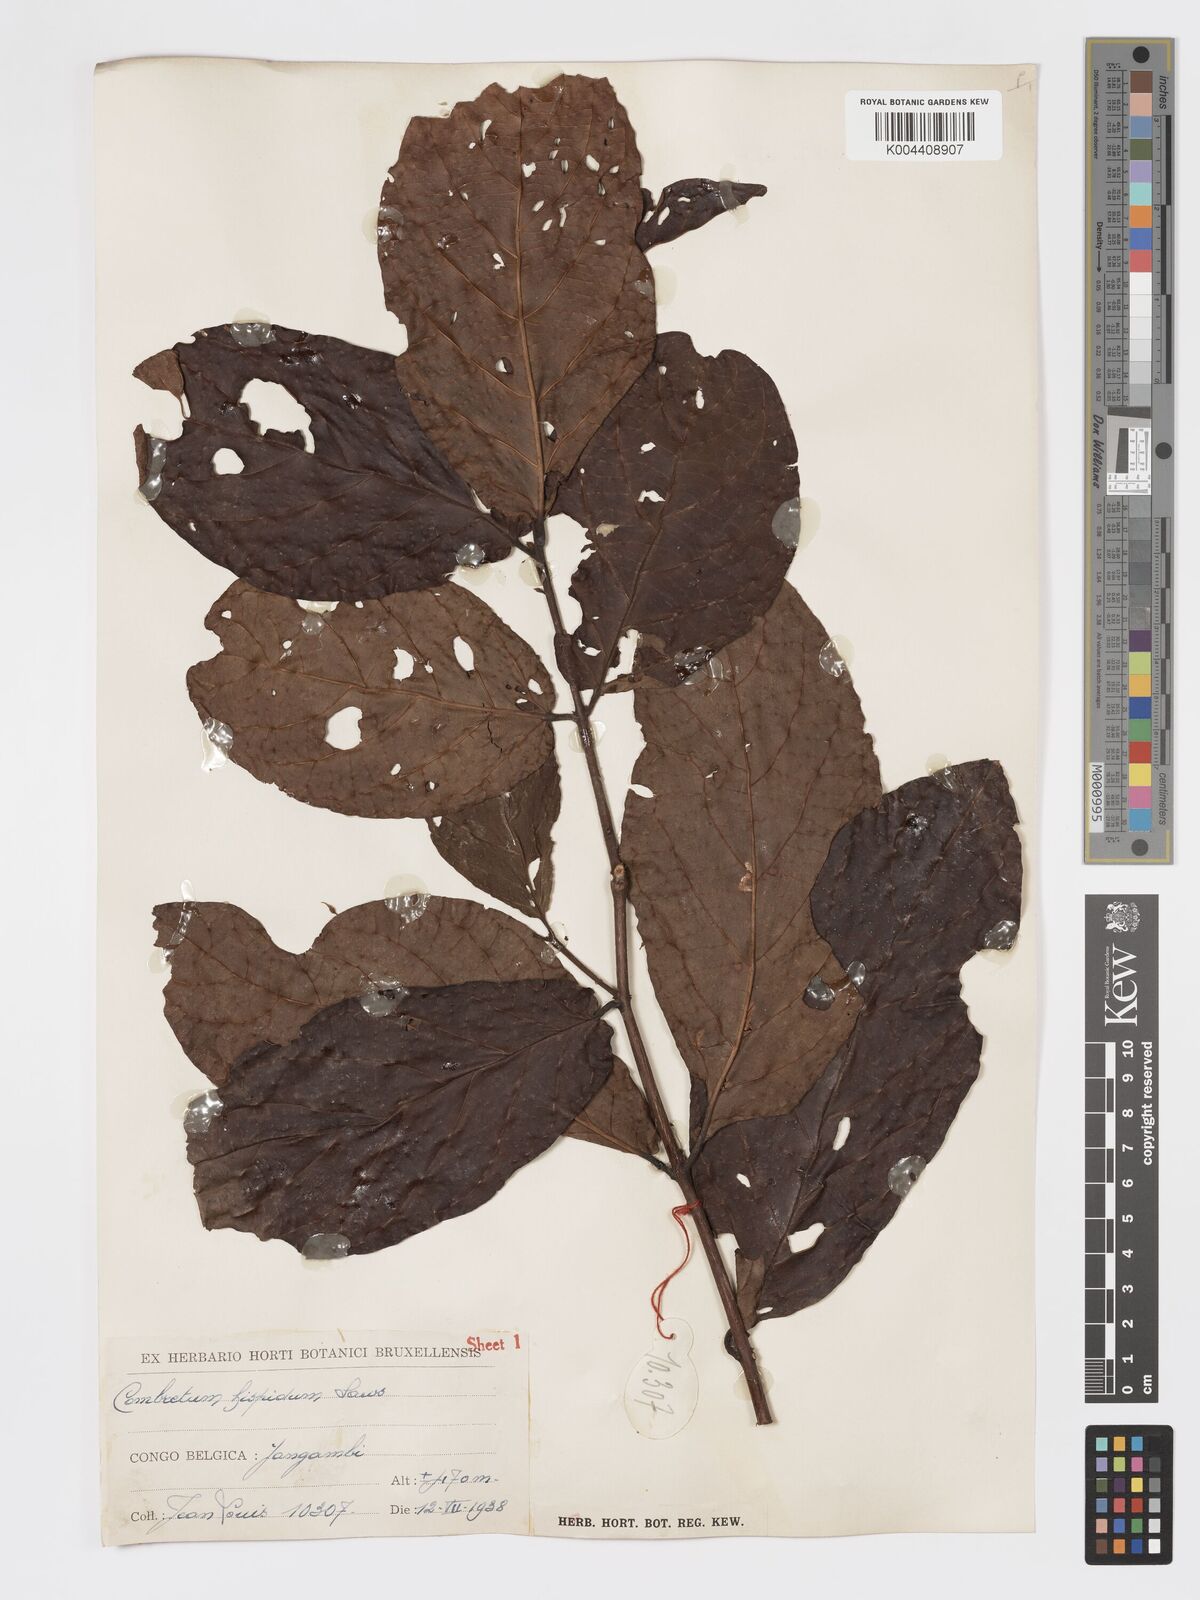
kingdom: Plantae
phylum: Tracheophyta
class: Magnoliopsida
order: Myrtales
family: Combretaceae
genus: Combretum
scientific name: Combretum comosum
